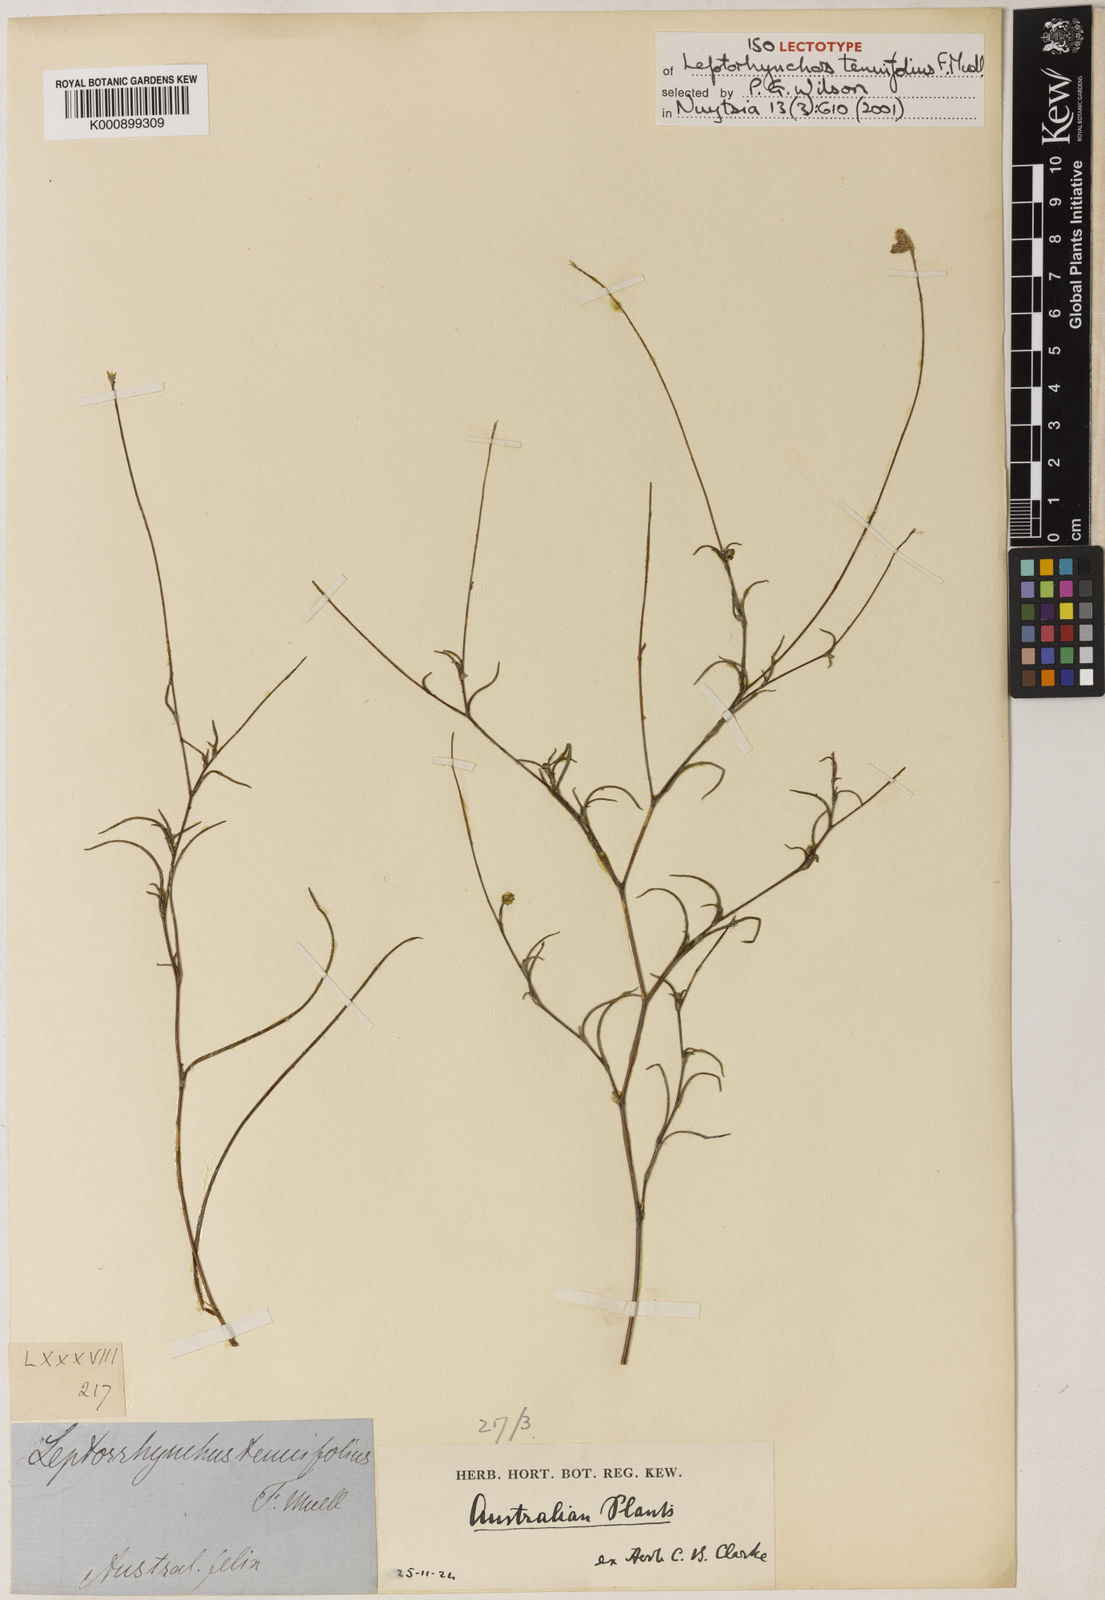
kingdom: Plantae
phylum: Tracheophyta
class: Magnoliopsida
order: Asterales
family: Asteraceae
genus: Leptorhynchos
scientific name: Leptorhynchos tenuifolius
